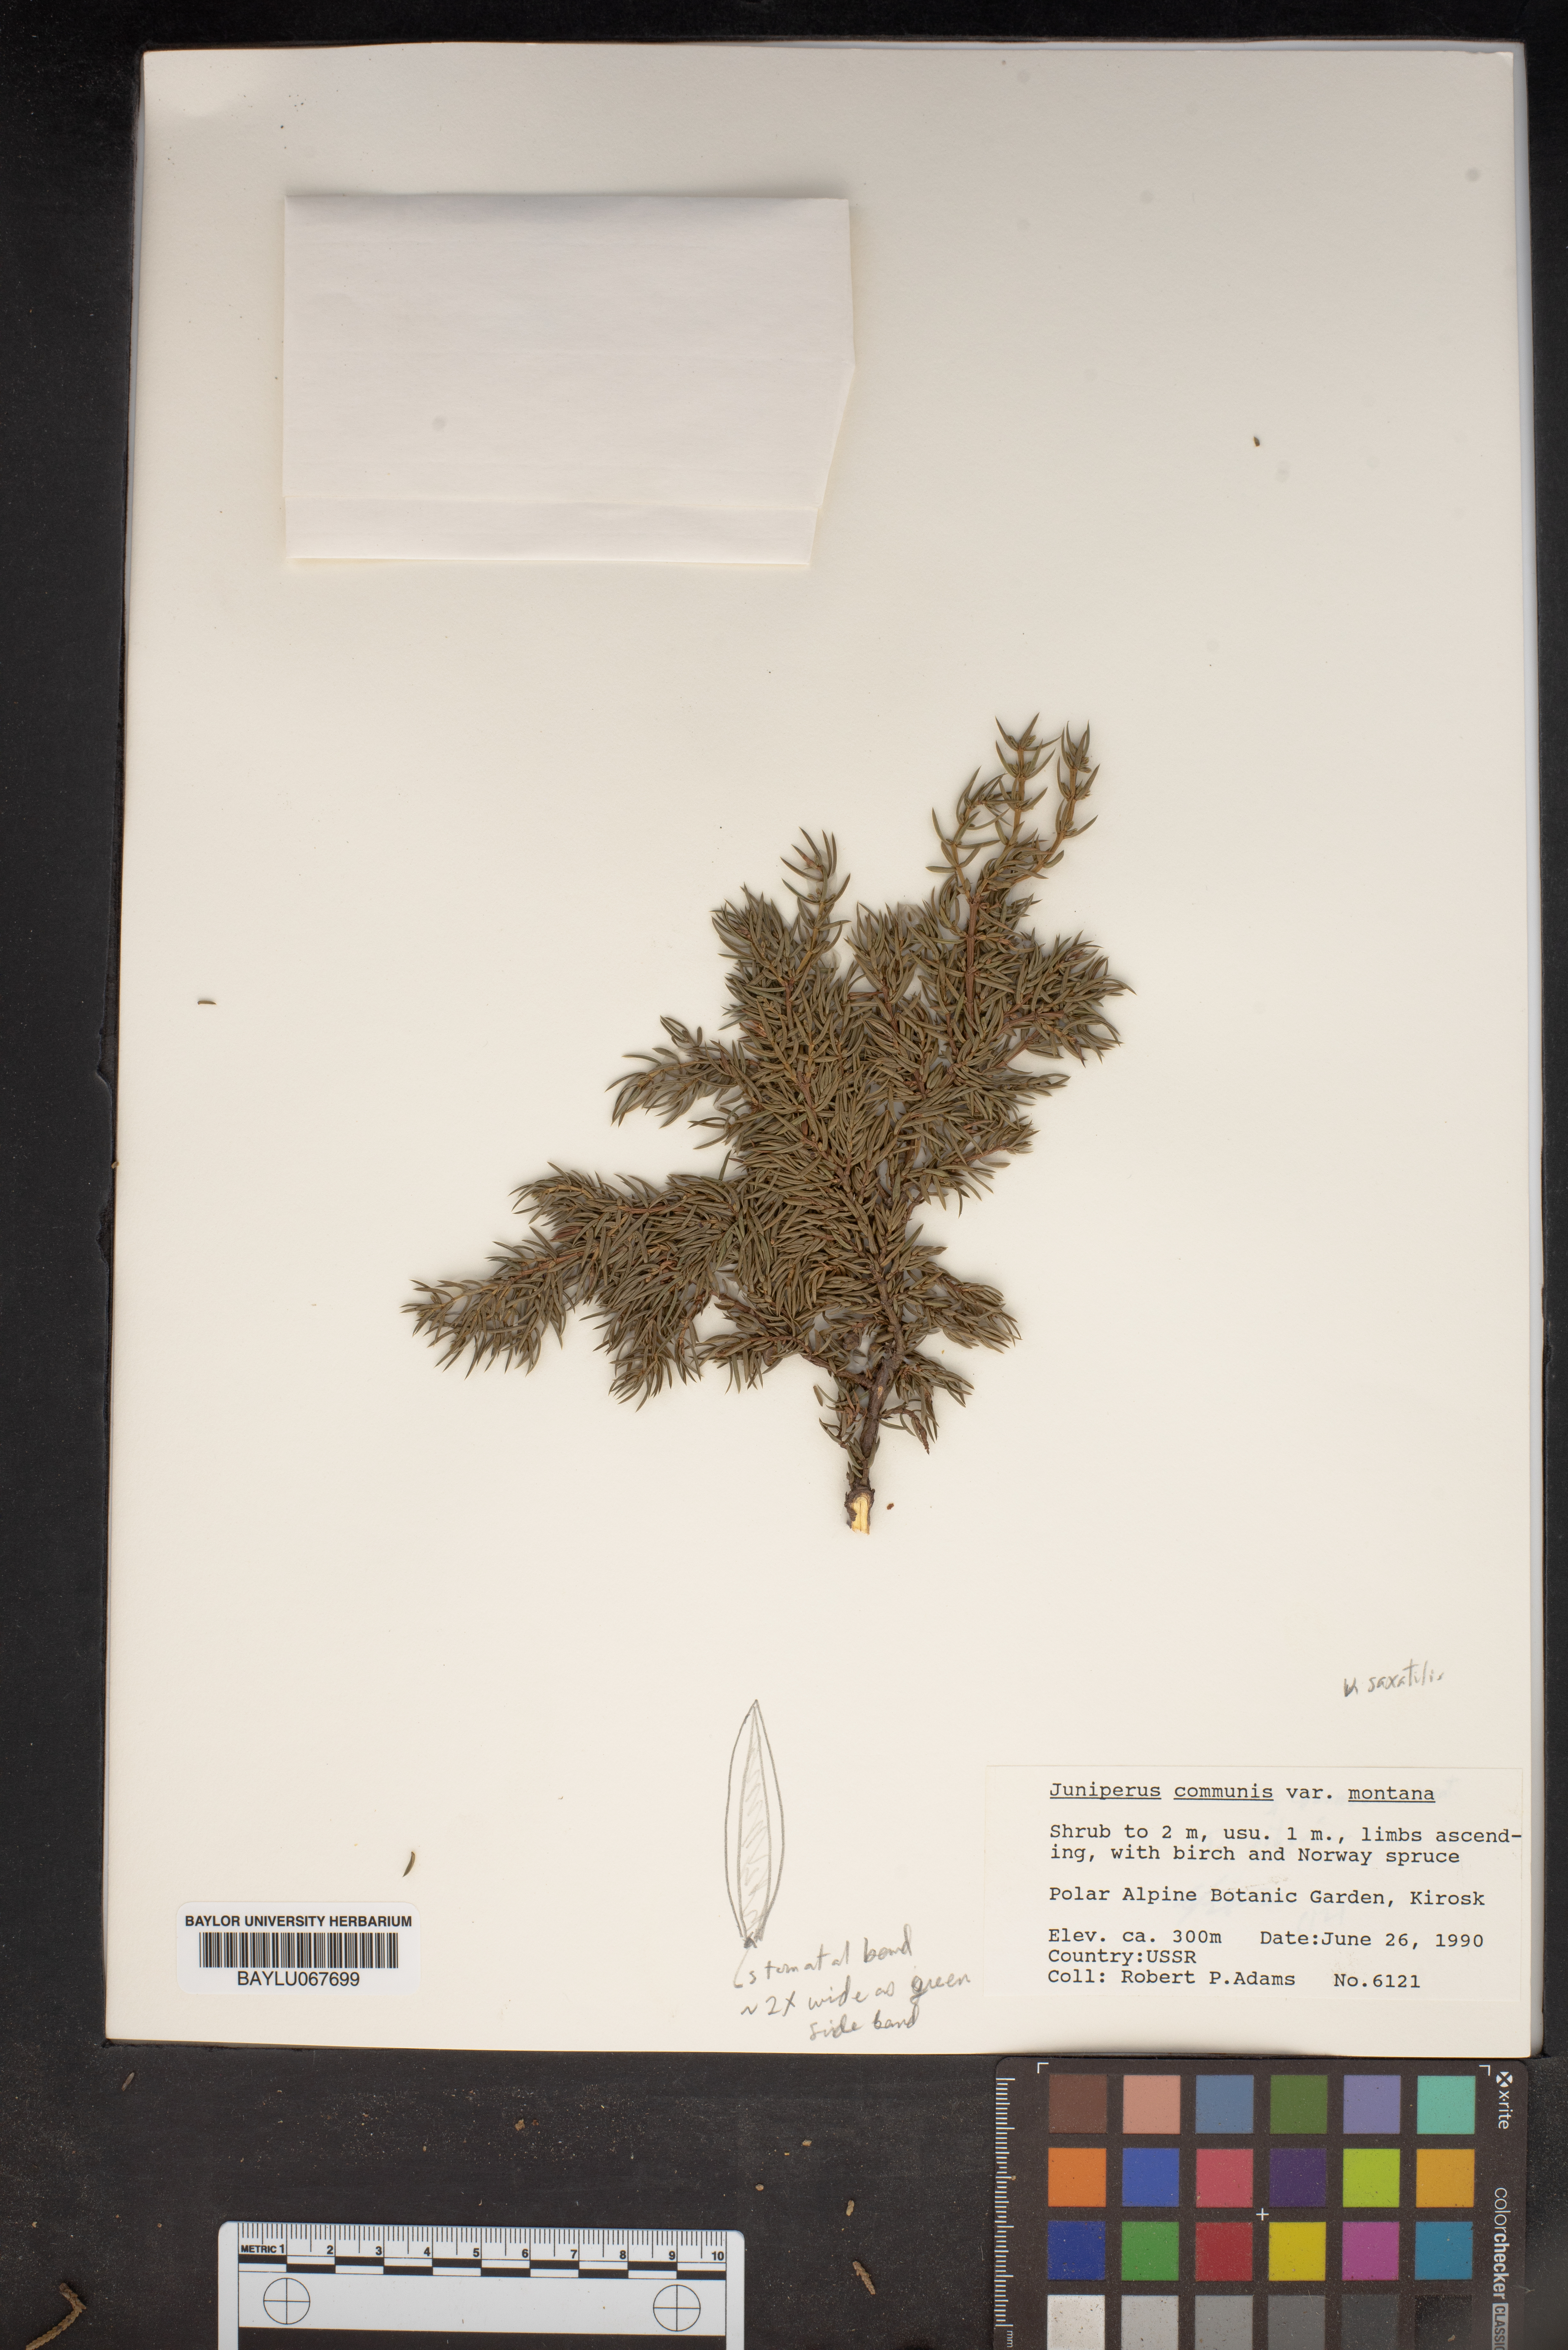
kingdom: Plantae
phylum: Tracheophyta
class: Pinopsida
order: Pinales
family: Cupressaceae
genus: Juniperus
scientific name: Juniperus communis
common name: Common juniper
